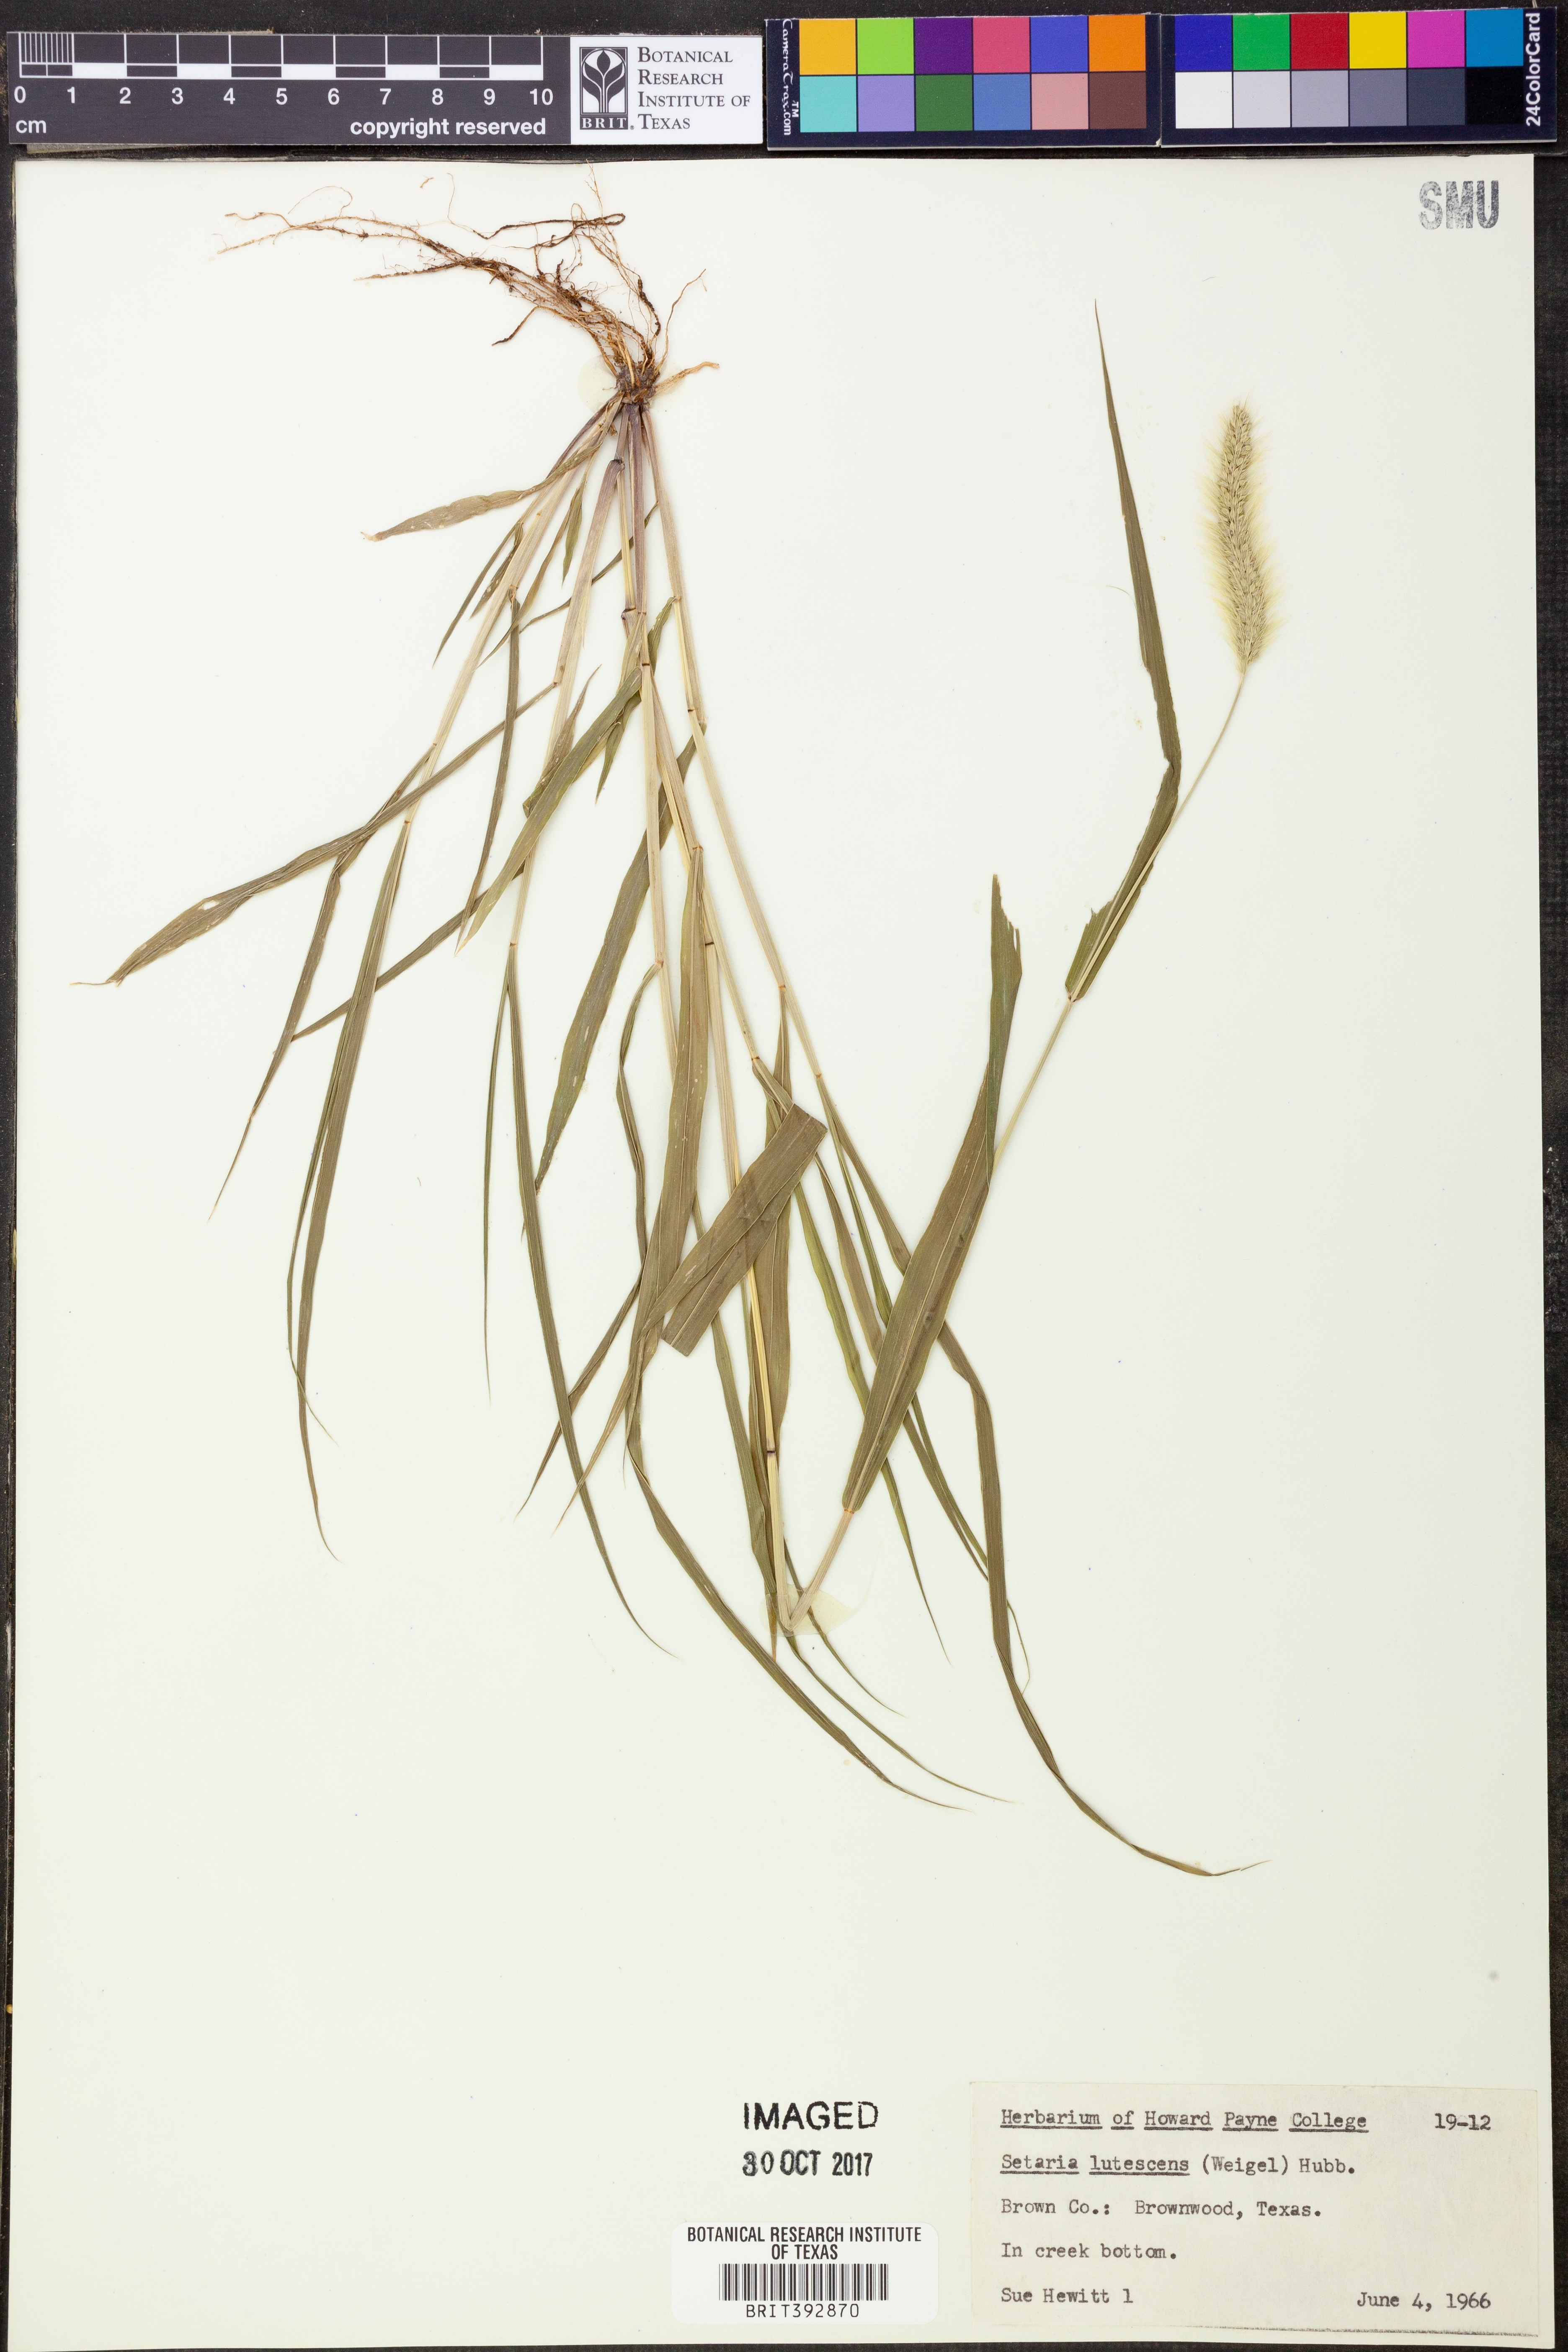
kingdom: Plantae
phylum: Tracheophyta
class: Liliopsida
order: Poales
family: Poaceae
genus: Cenchrus
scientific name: Cenchrus americanus
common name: Pearl millet
